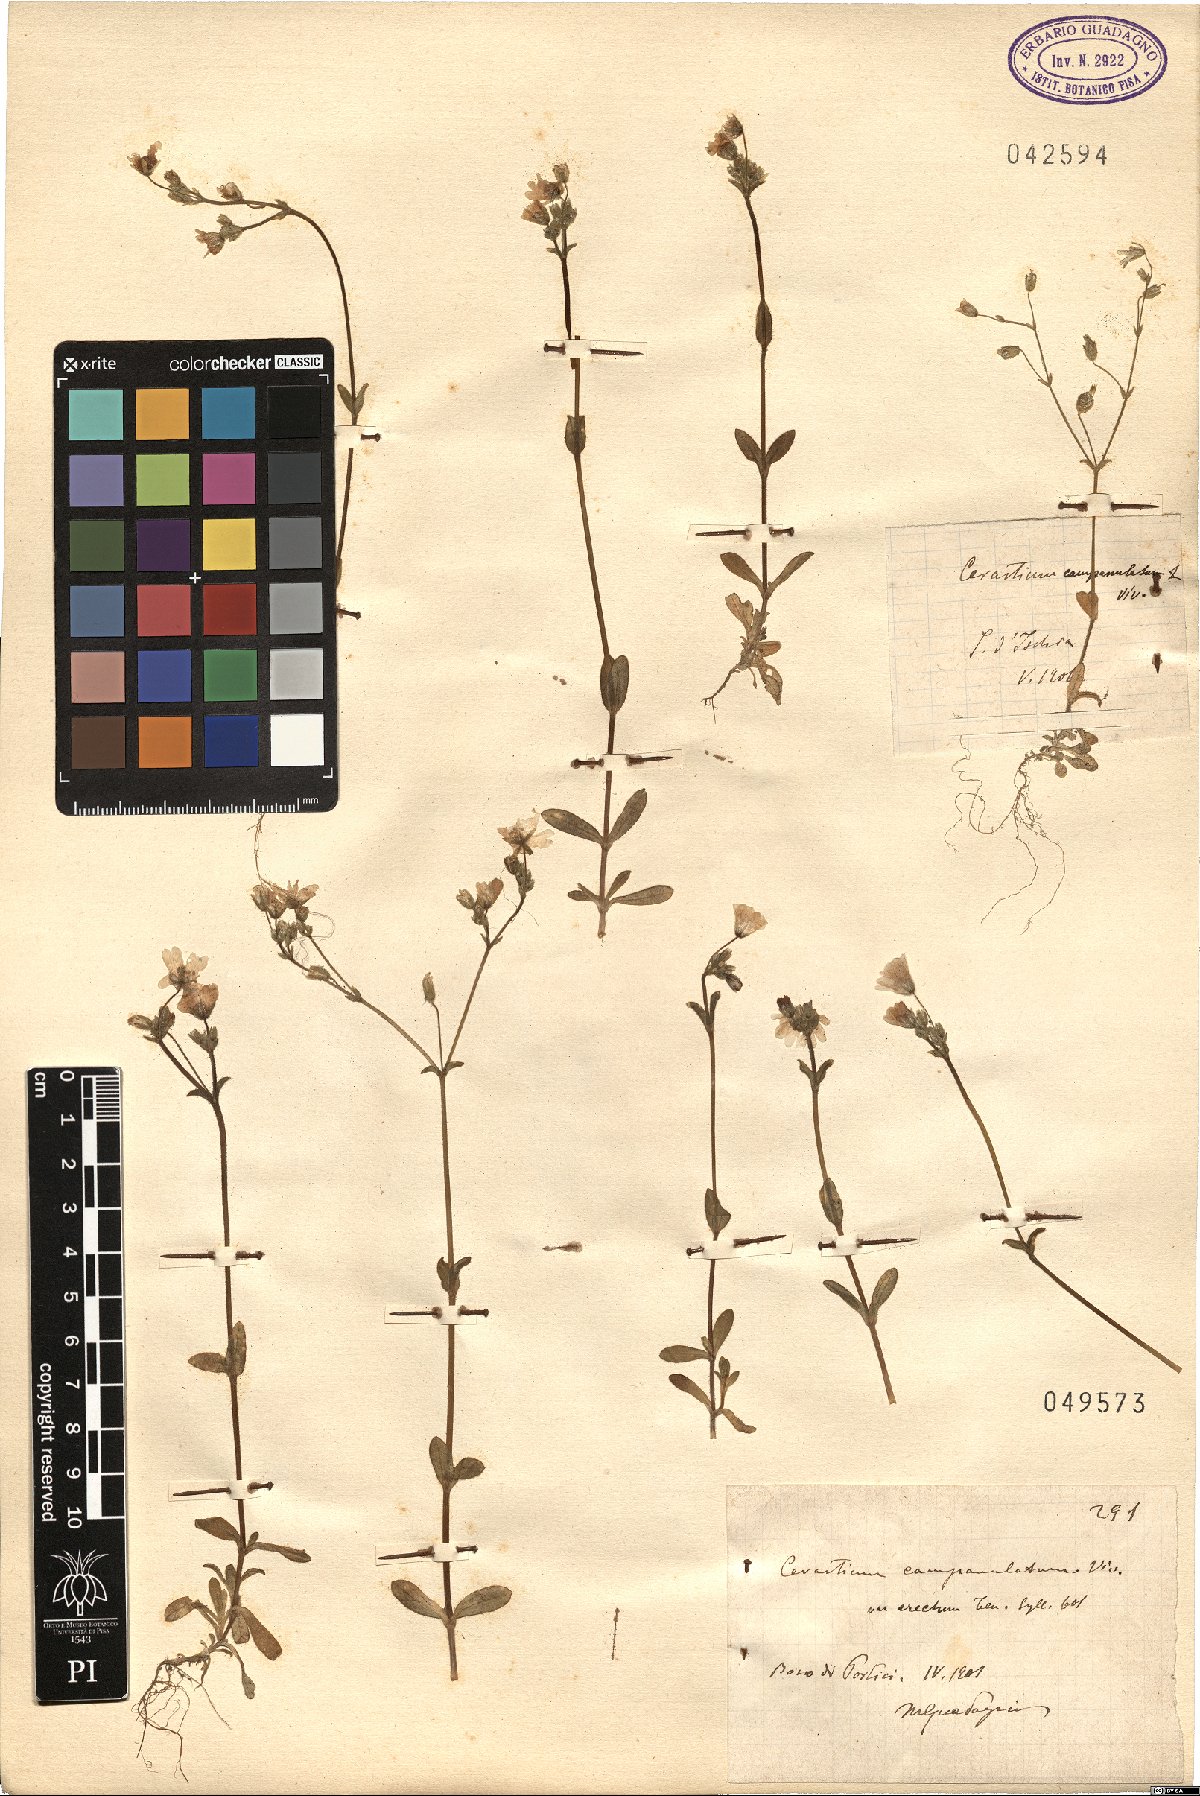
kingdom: Plantae
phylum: Tracheophyta
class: Magnoliopsida
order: Caryophyllales
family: Caryophyllaceae
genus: Cerastium
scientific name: Cerastium ligusticum
